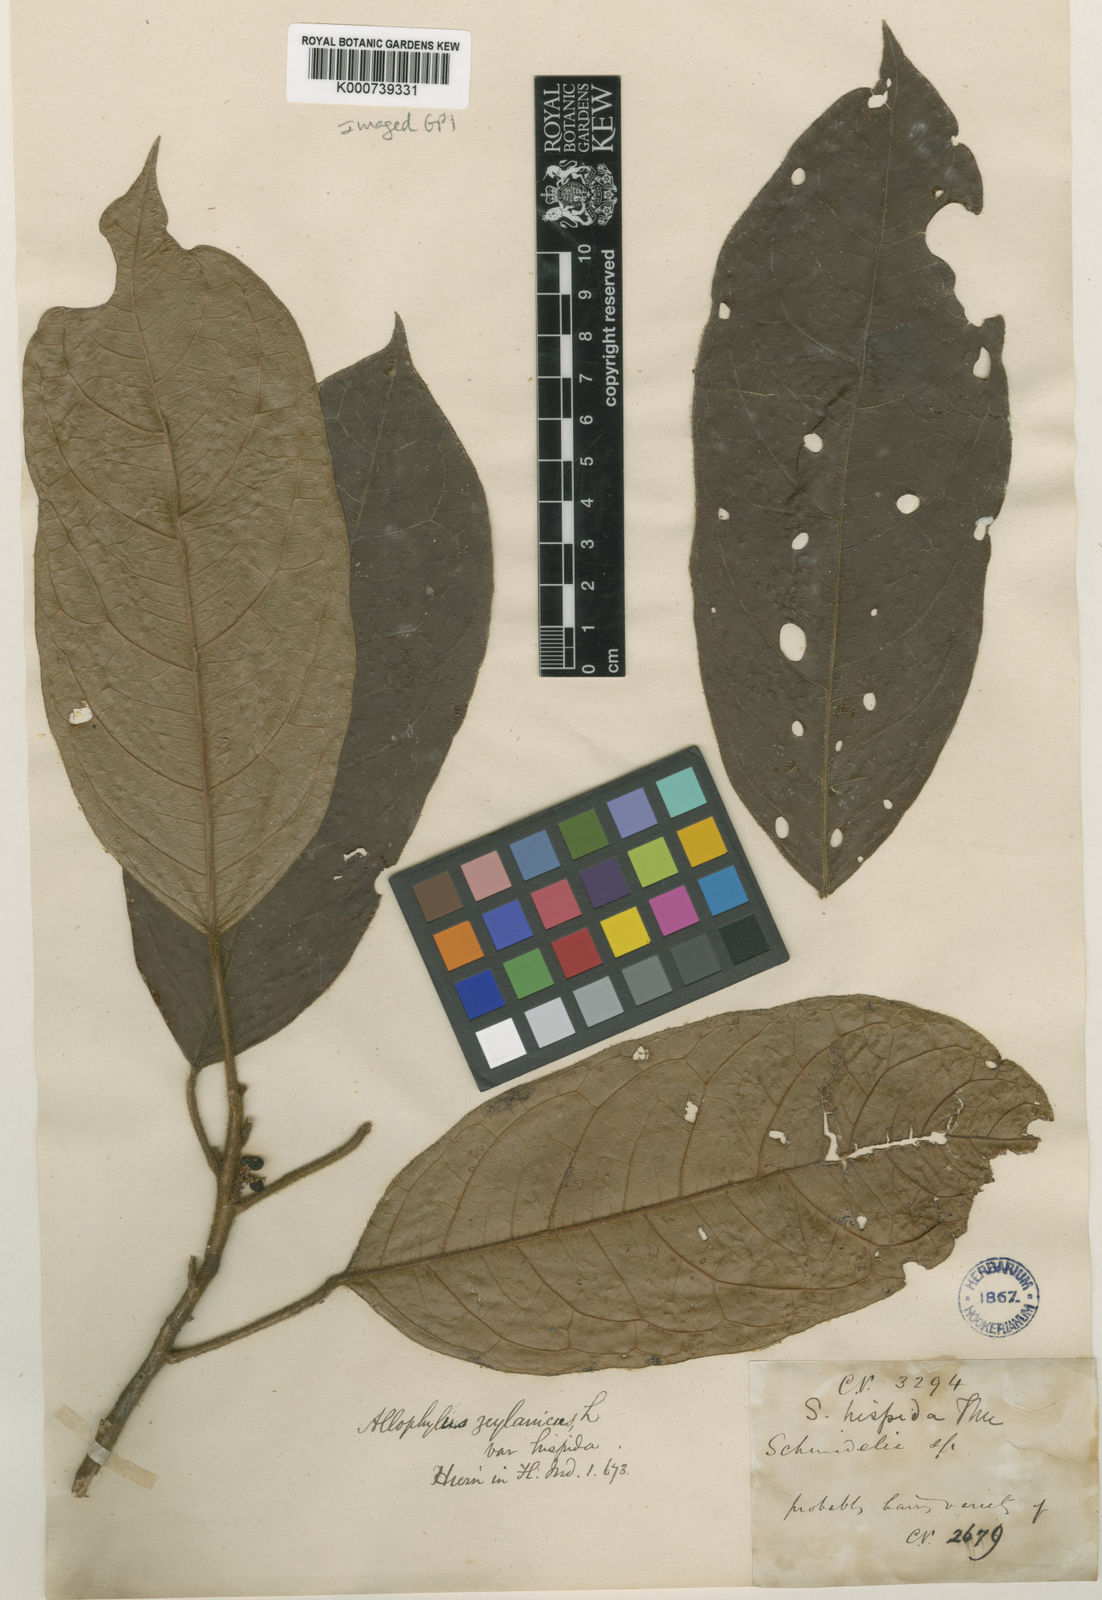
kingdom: Plantae
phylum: Tracheophyta
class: Magnoliopsida
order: Sapindales
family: Sapindaceae
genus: Allophylus
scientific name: Allophylus zeylanicus
